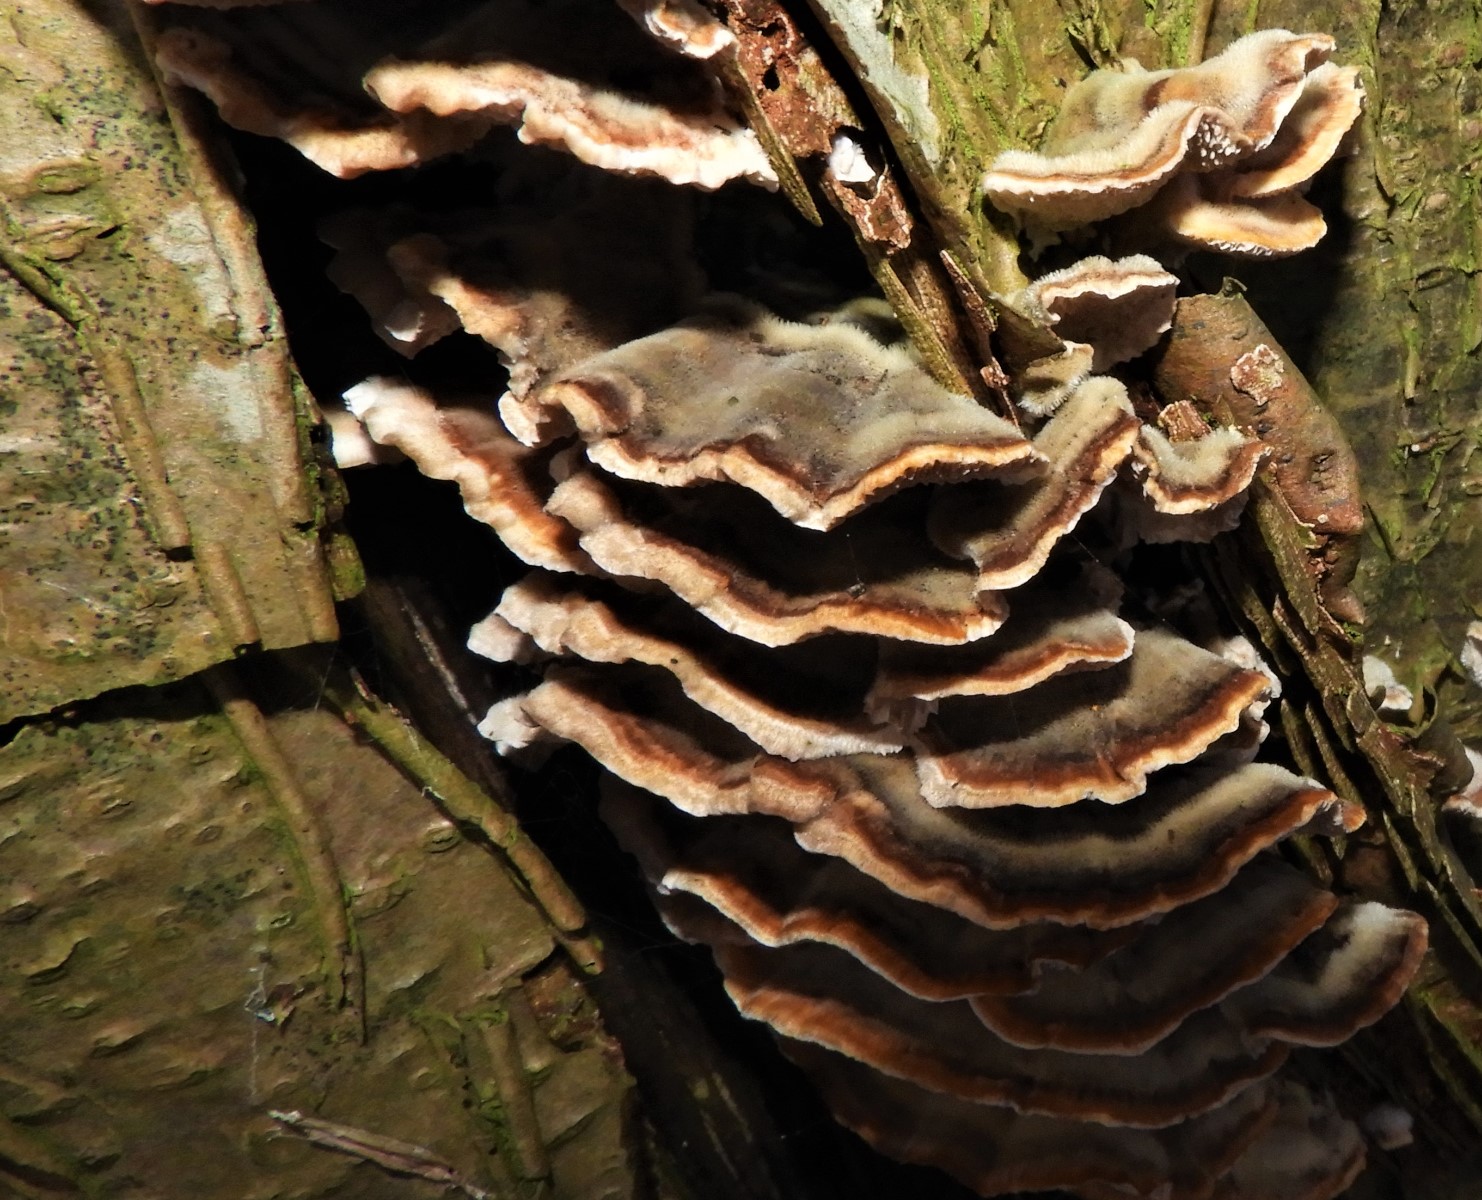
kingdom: Fungi
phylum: Basidiomycota
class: Agaricomycetes
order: Polyporales
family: Polyporaceae
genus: Trametes
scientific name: Trametes
